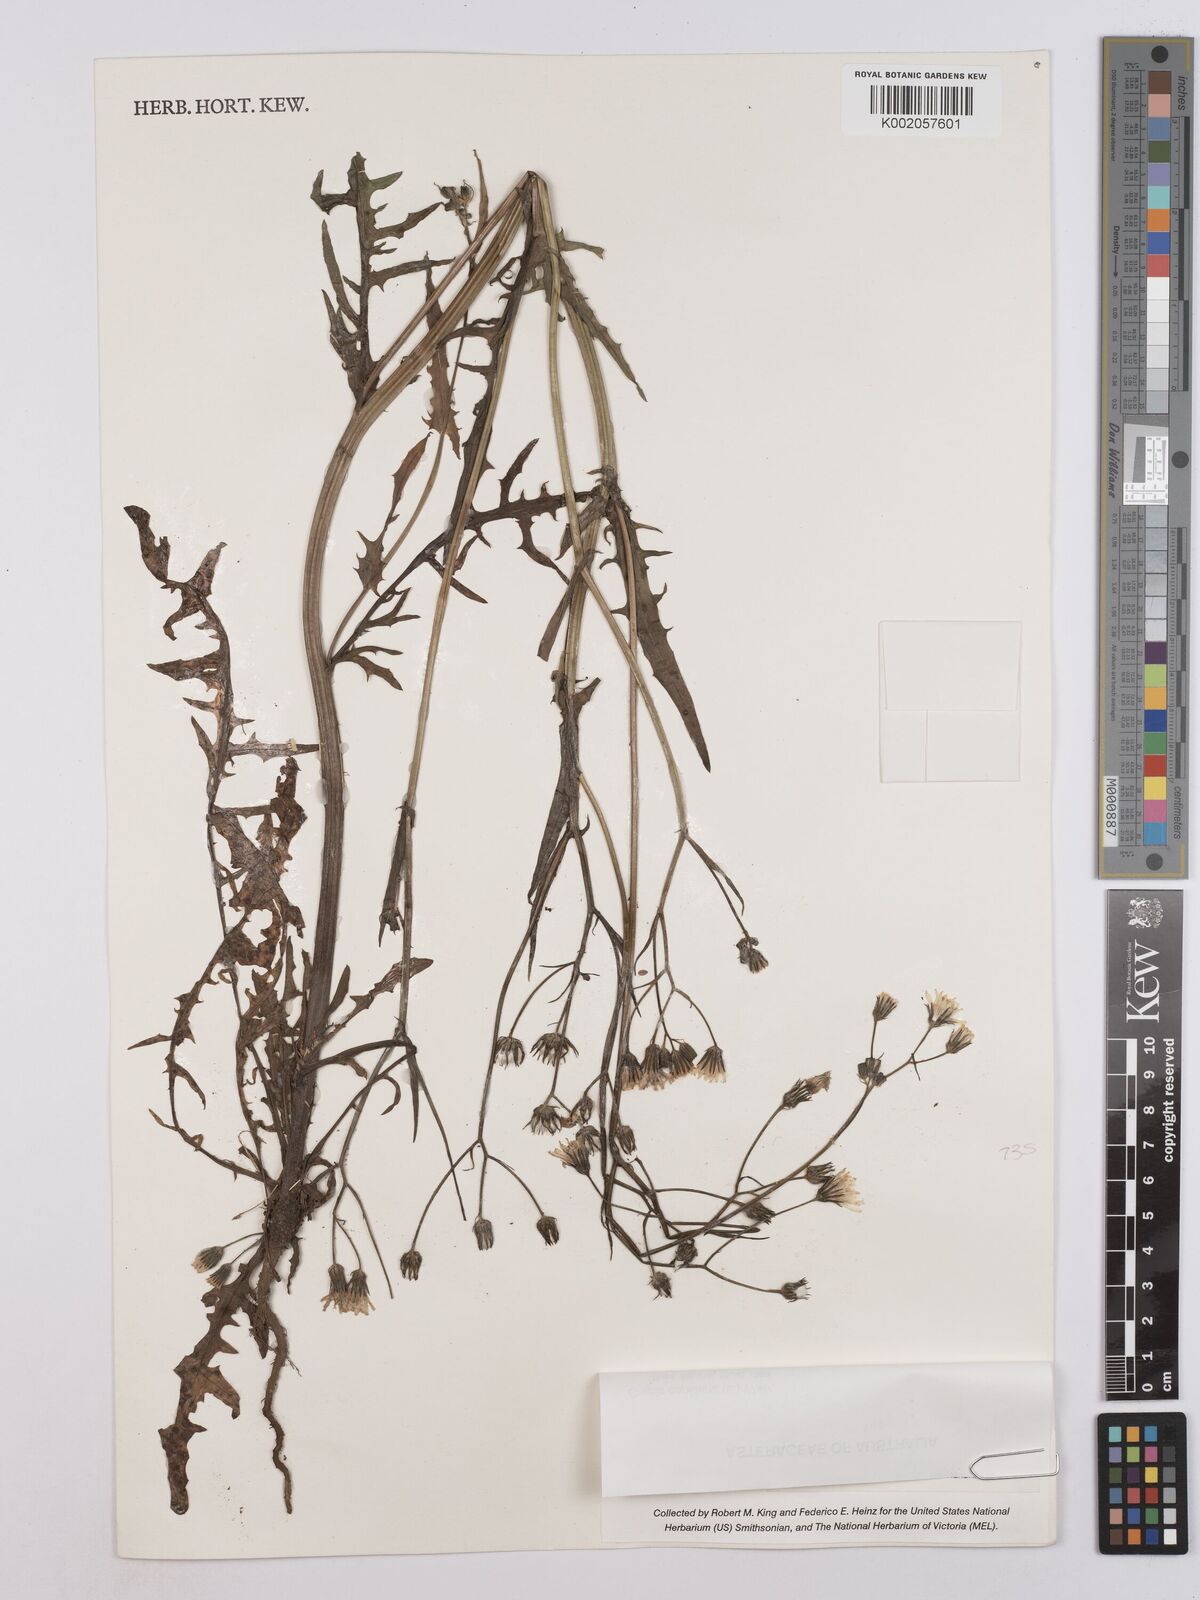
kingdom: Plantae
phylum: Tracheophyta
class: Magnoliopsida
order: Asterales
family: Asteraceae
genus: Crepis
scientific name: Crepis capillaris
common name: Smooth hawksbeard
